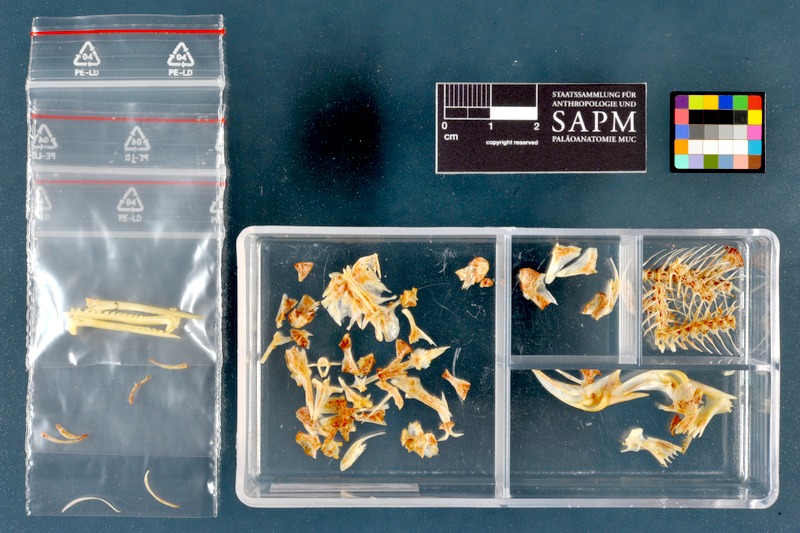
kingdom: Animalia
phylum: Chordata
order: Siluriformes
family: Bagridae
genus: Mystus
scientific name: Mystus pelusius
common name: Zugzug catfish
